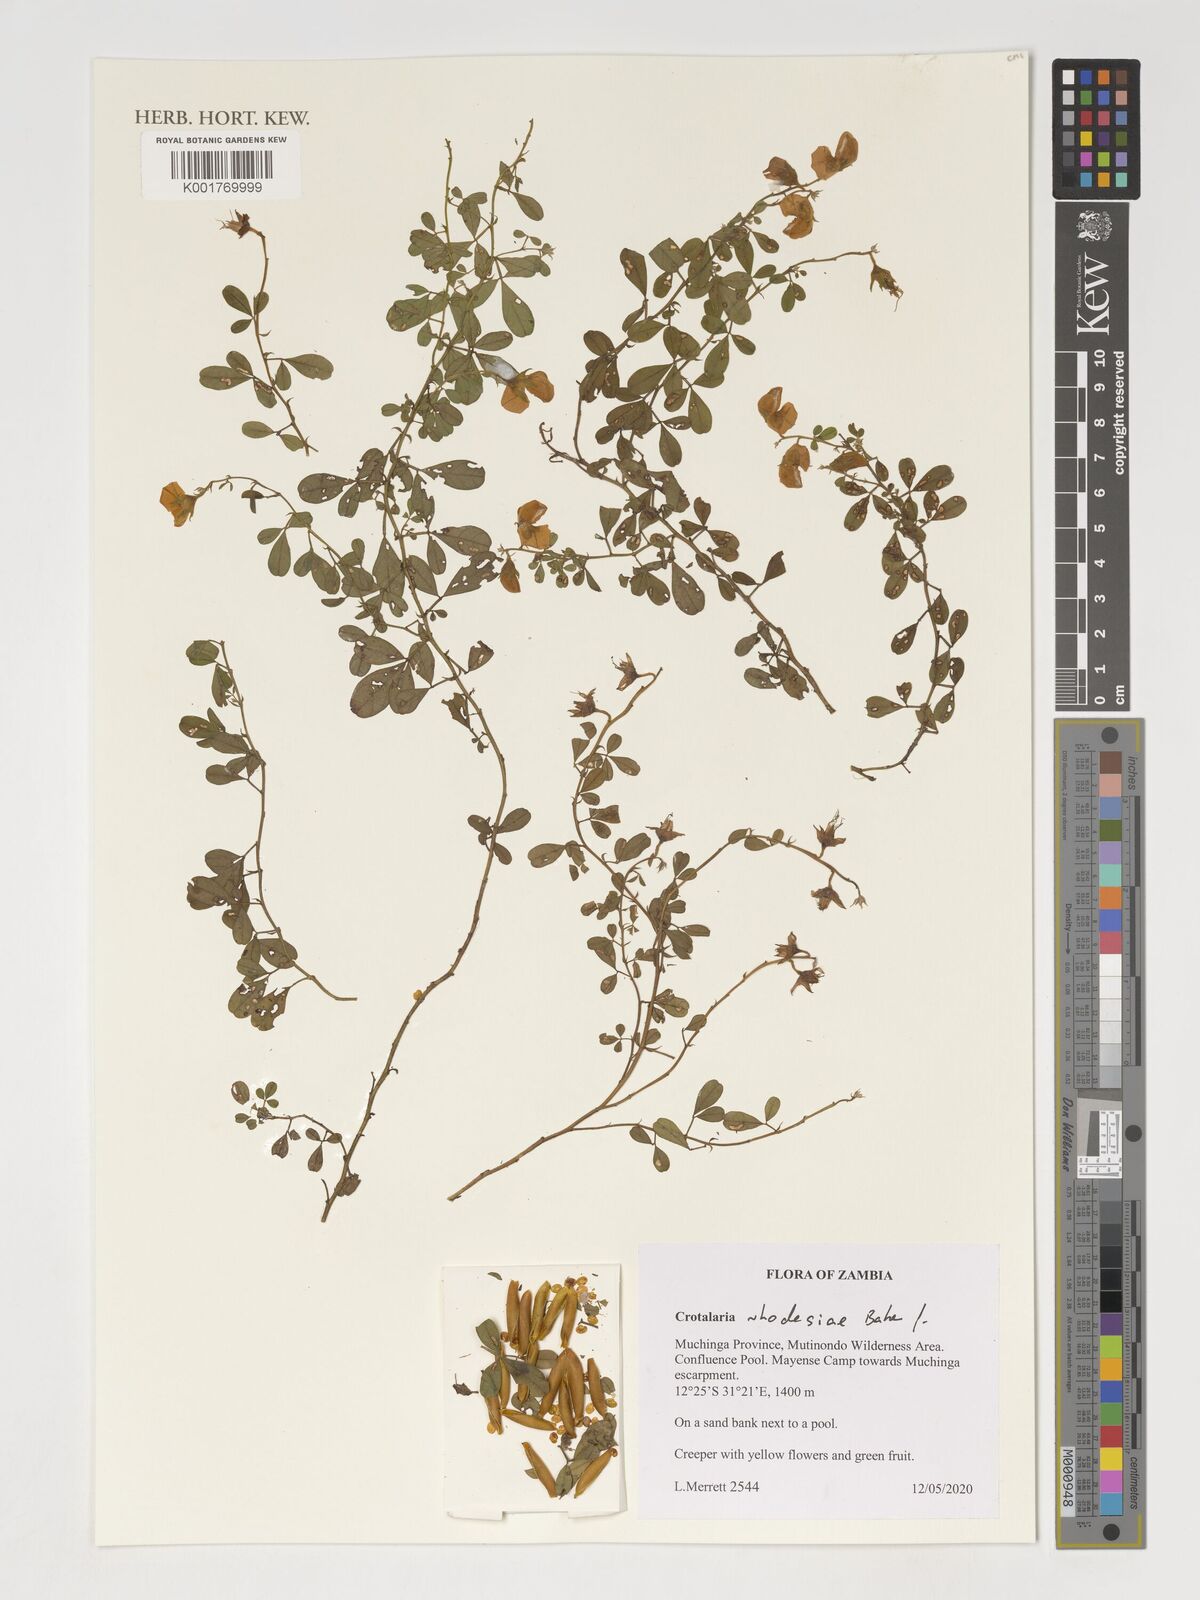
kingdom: Plantae
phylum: Tracheophyta
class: Magnoliopsida
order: Fabales
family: Fabaceae
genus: Crotalaria
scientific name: Crotalaria rhodesiae
